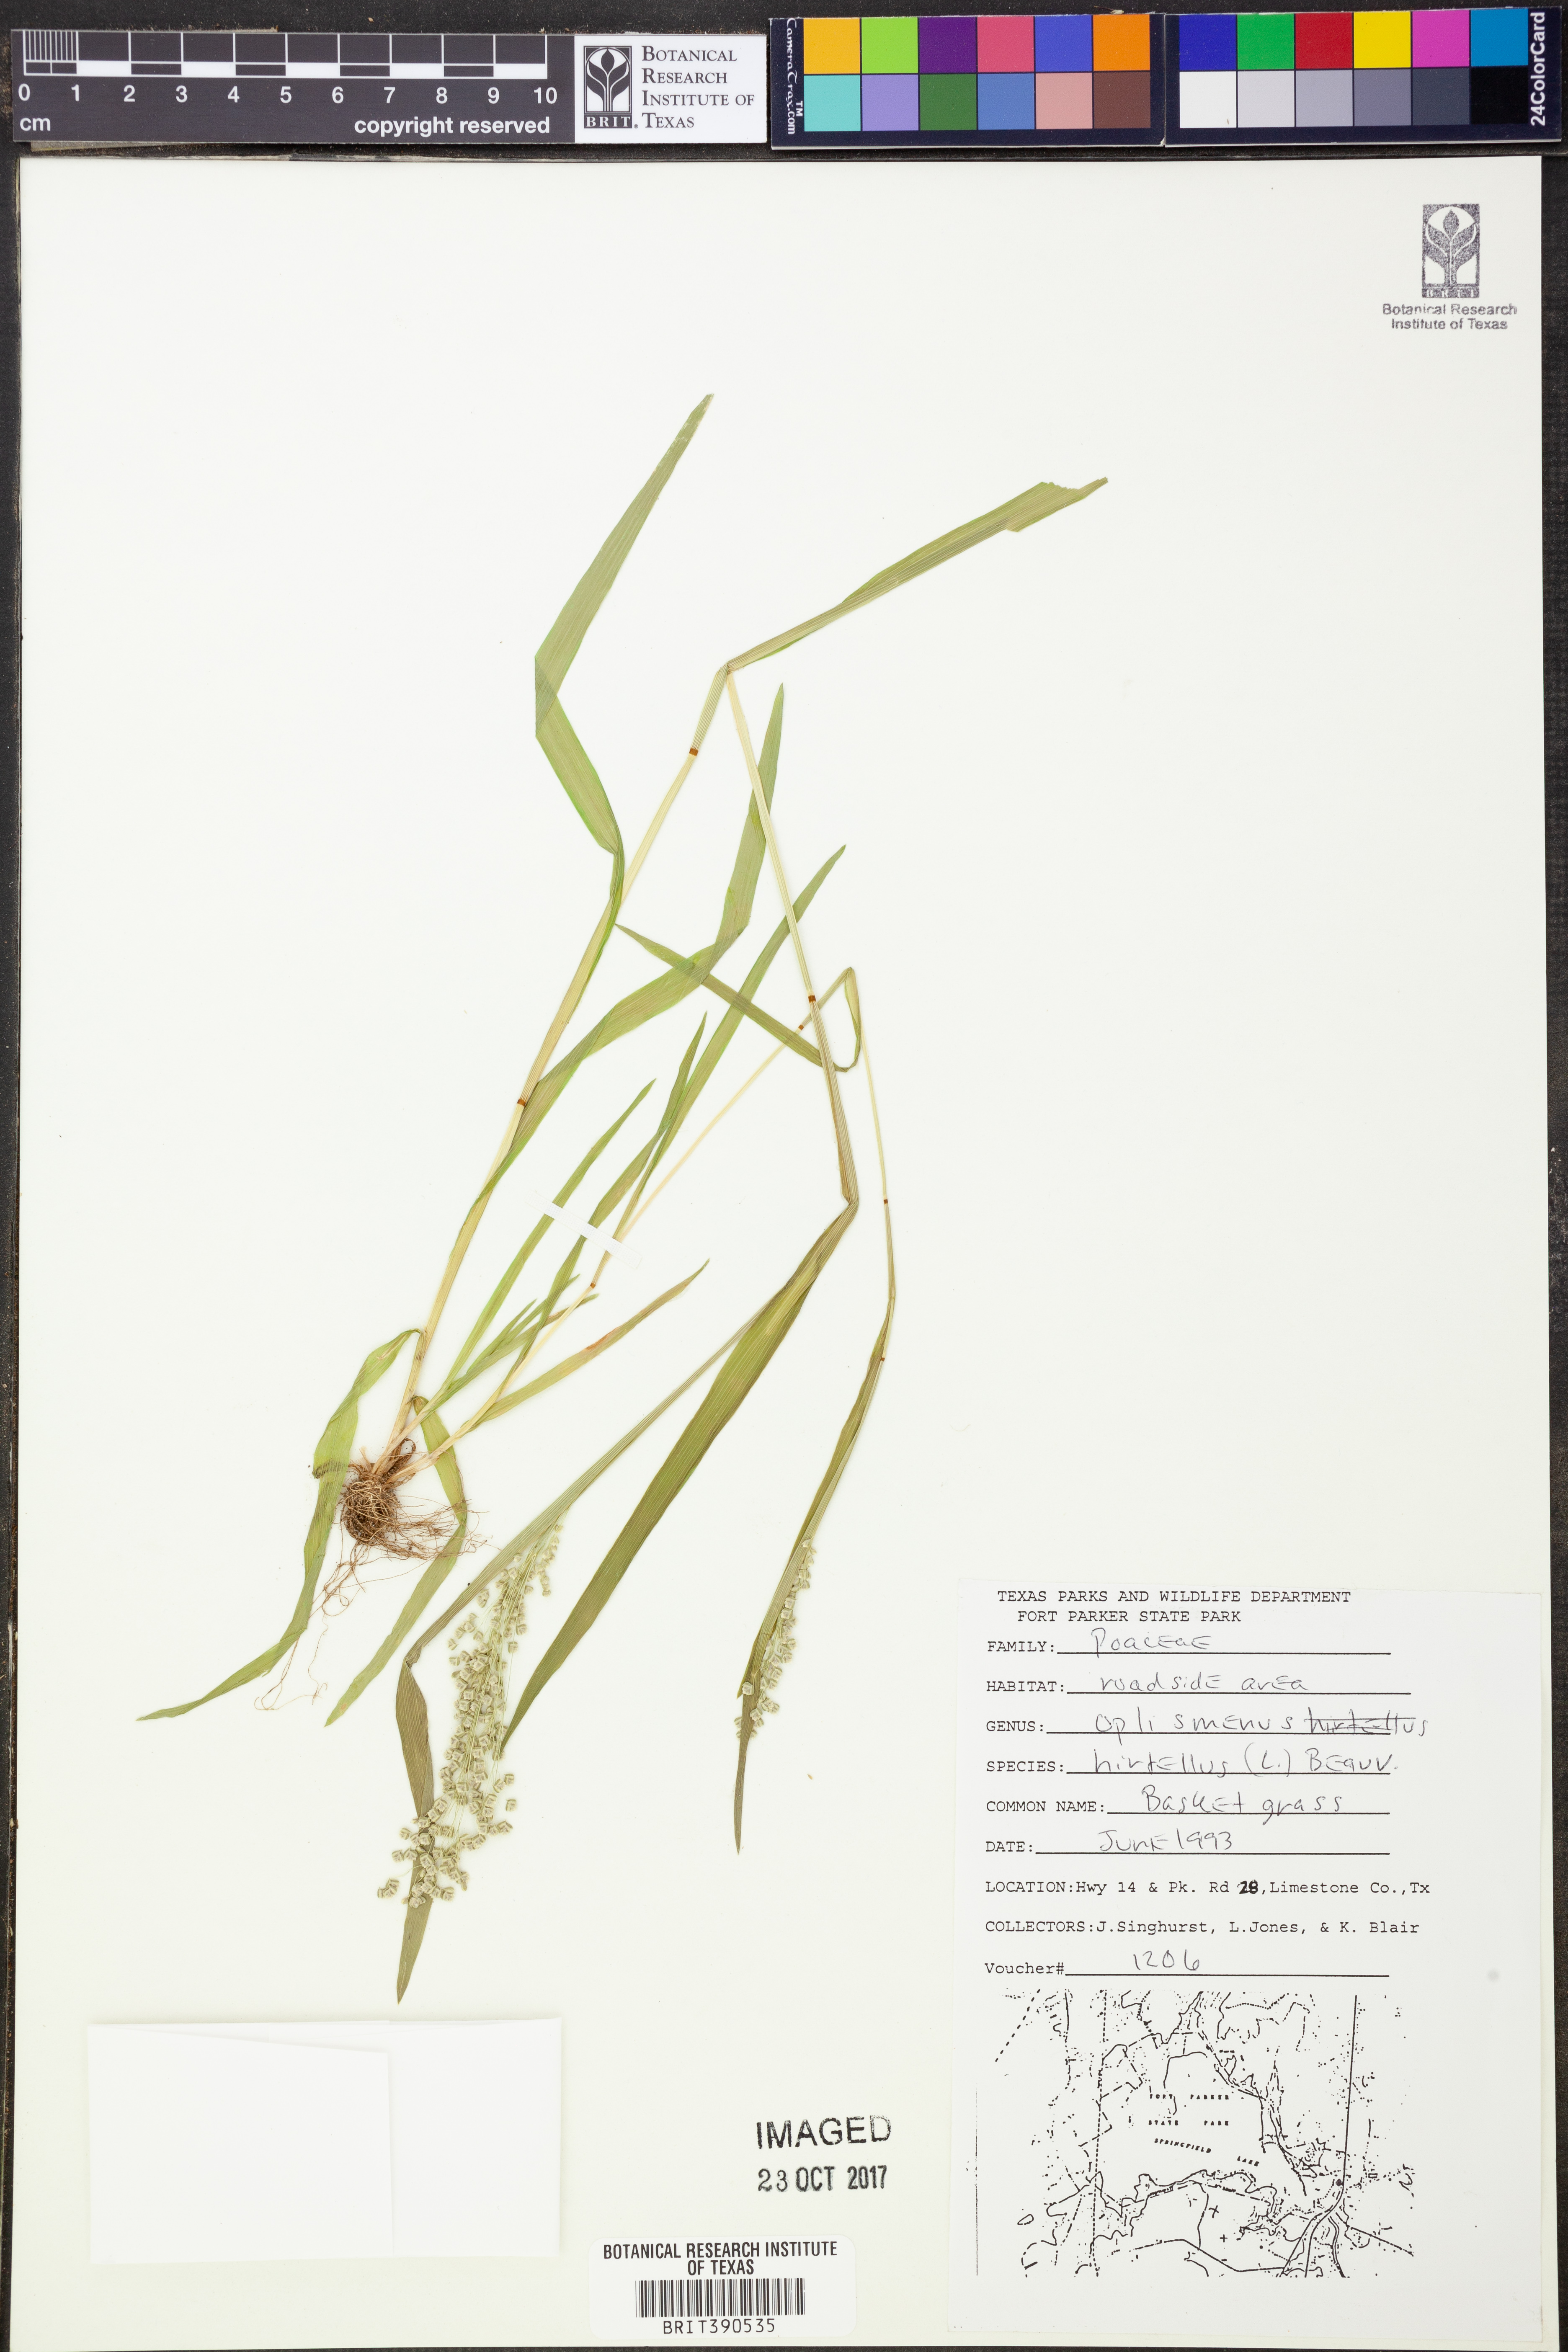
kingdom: Plantae
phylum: Tracheophyta
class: Liliopsida
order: Poales
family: Poaceae
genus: Oplismenus
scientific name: Oplismenus hirtellus
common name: Basketgrass
